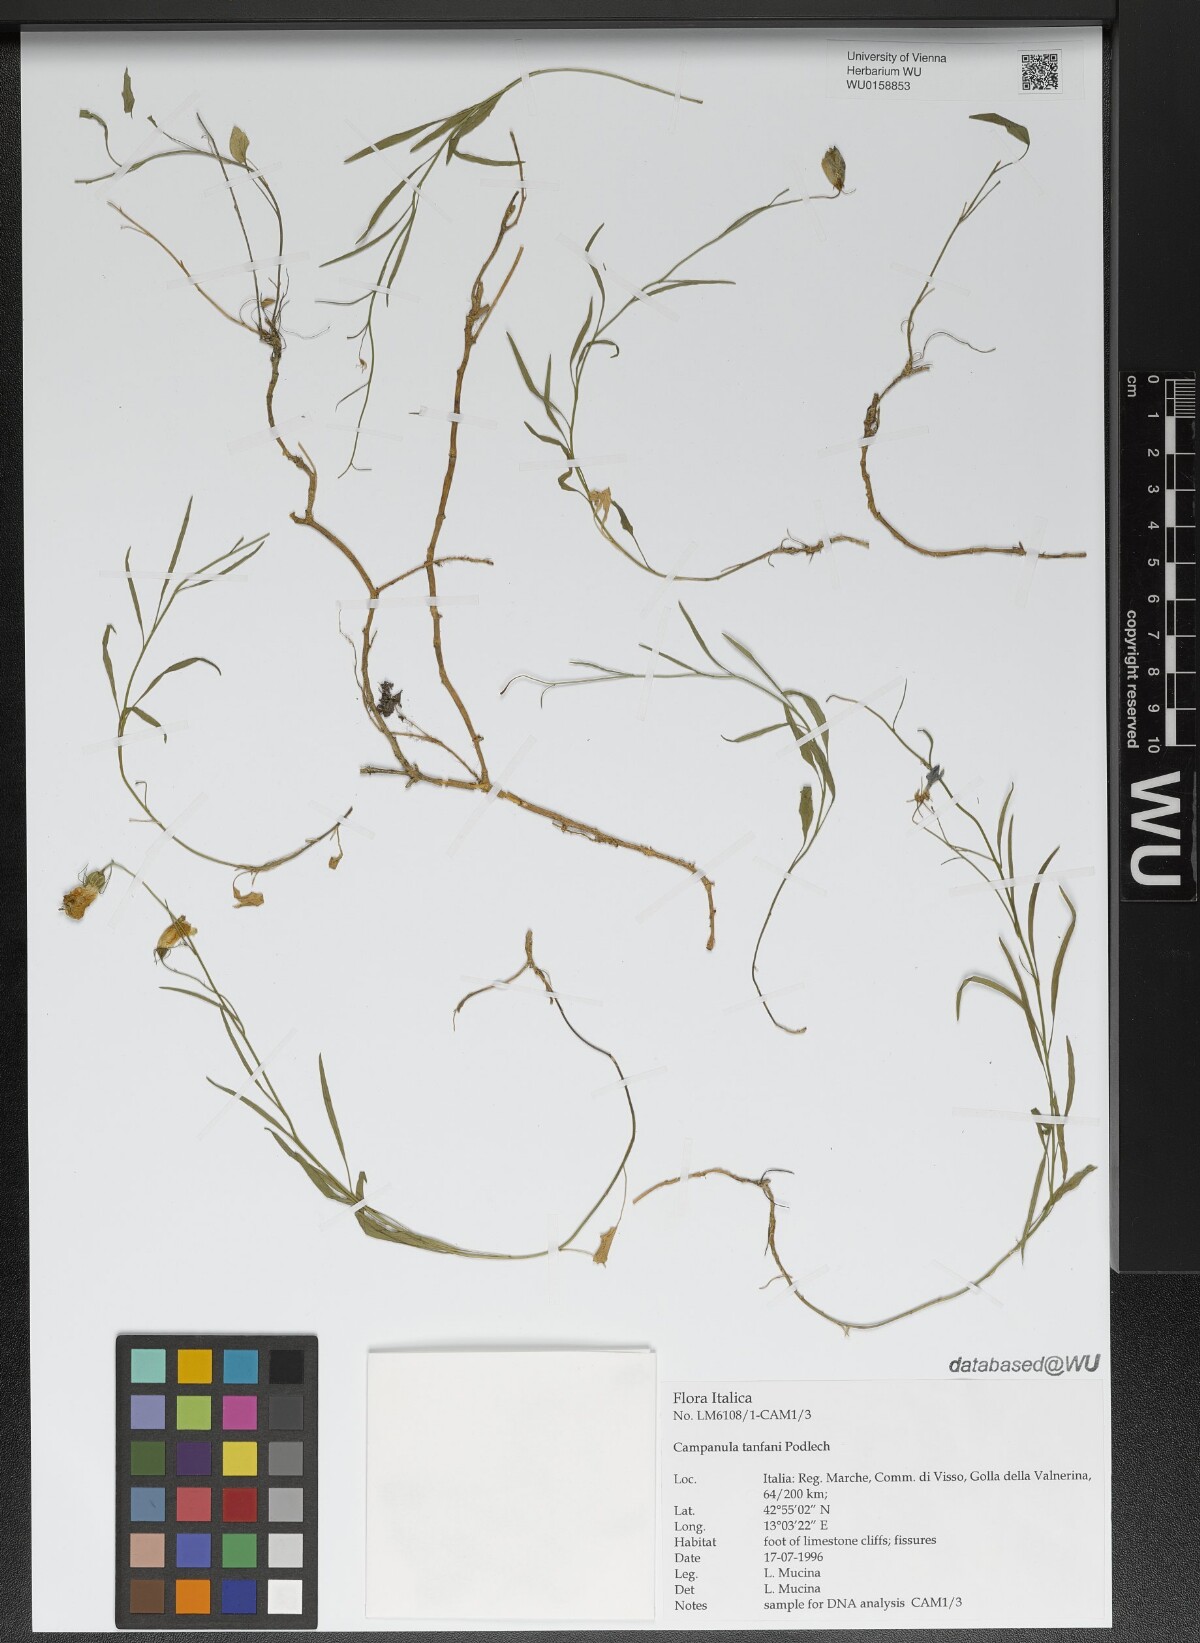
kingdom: Plantae
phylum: Tracheophyta
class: Magnoliopsida
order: Asterales
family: Campanulaceae
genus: Campanula
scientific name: Campanula tanfanii
